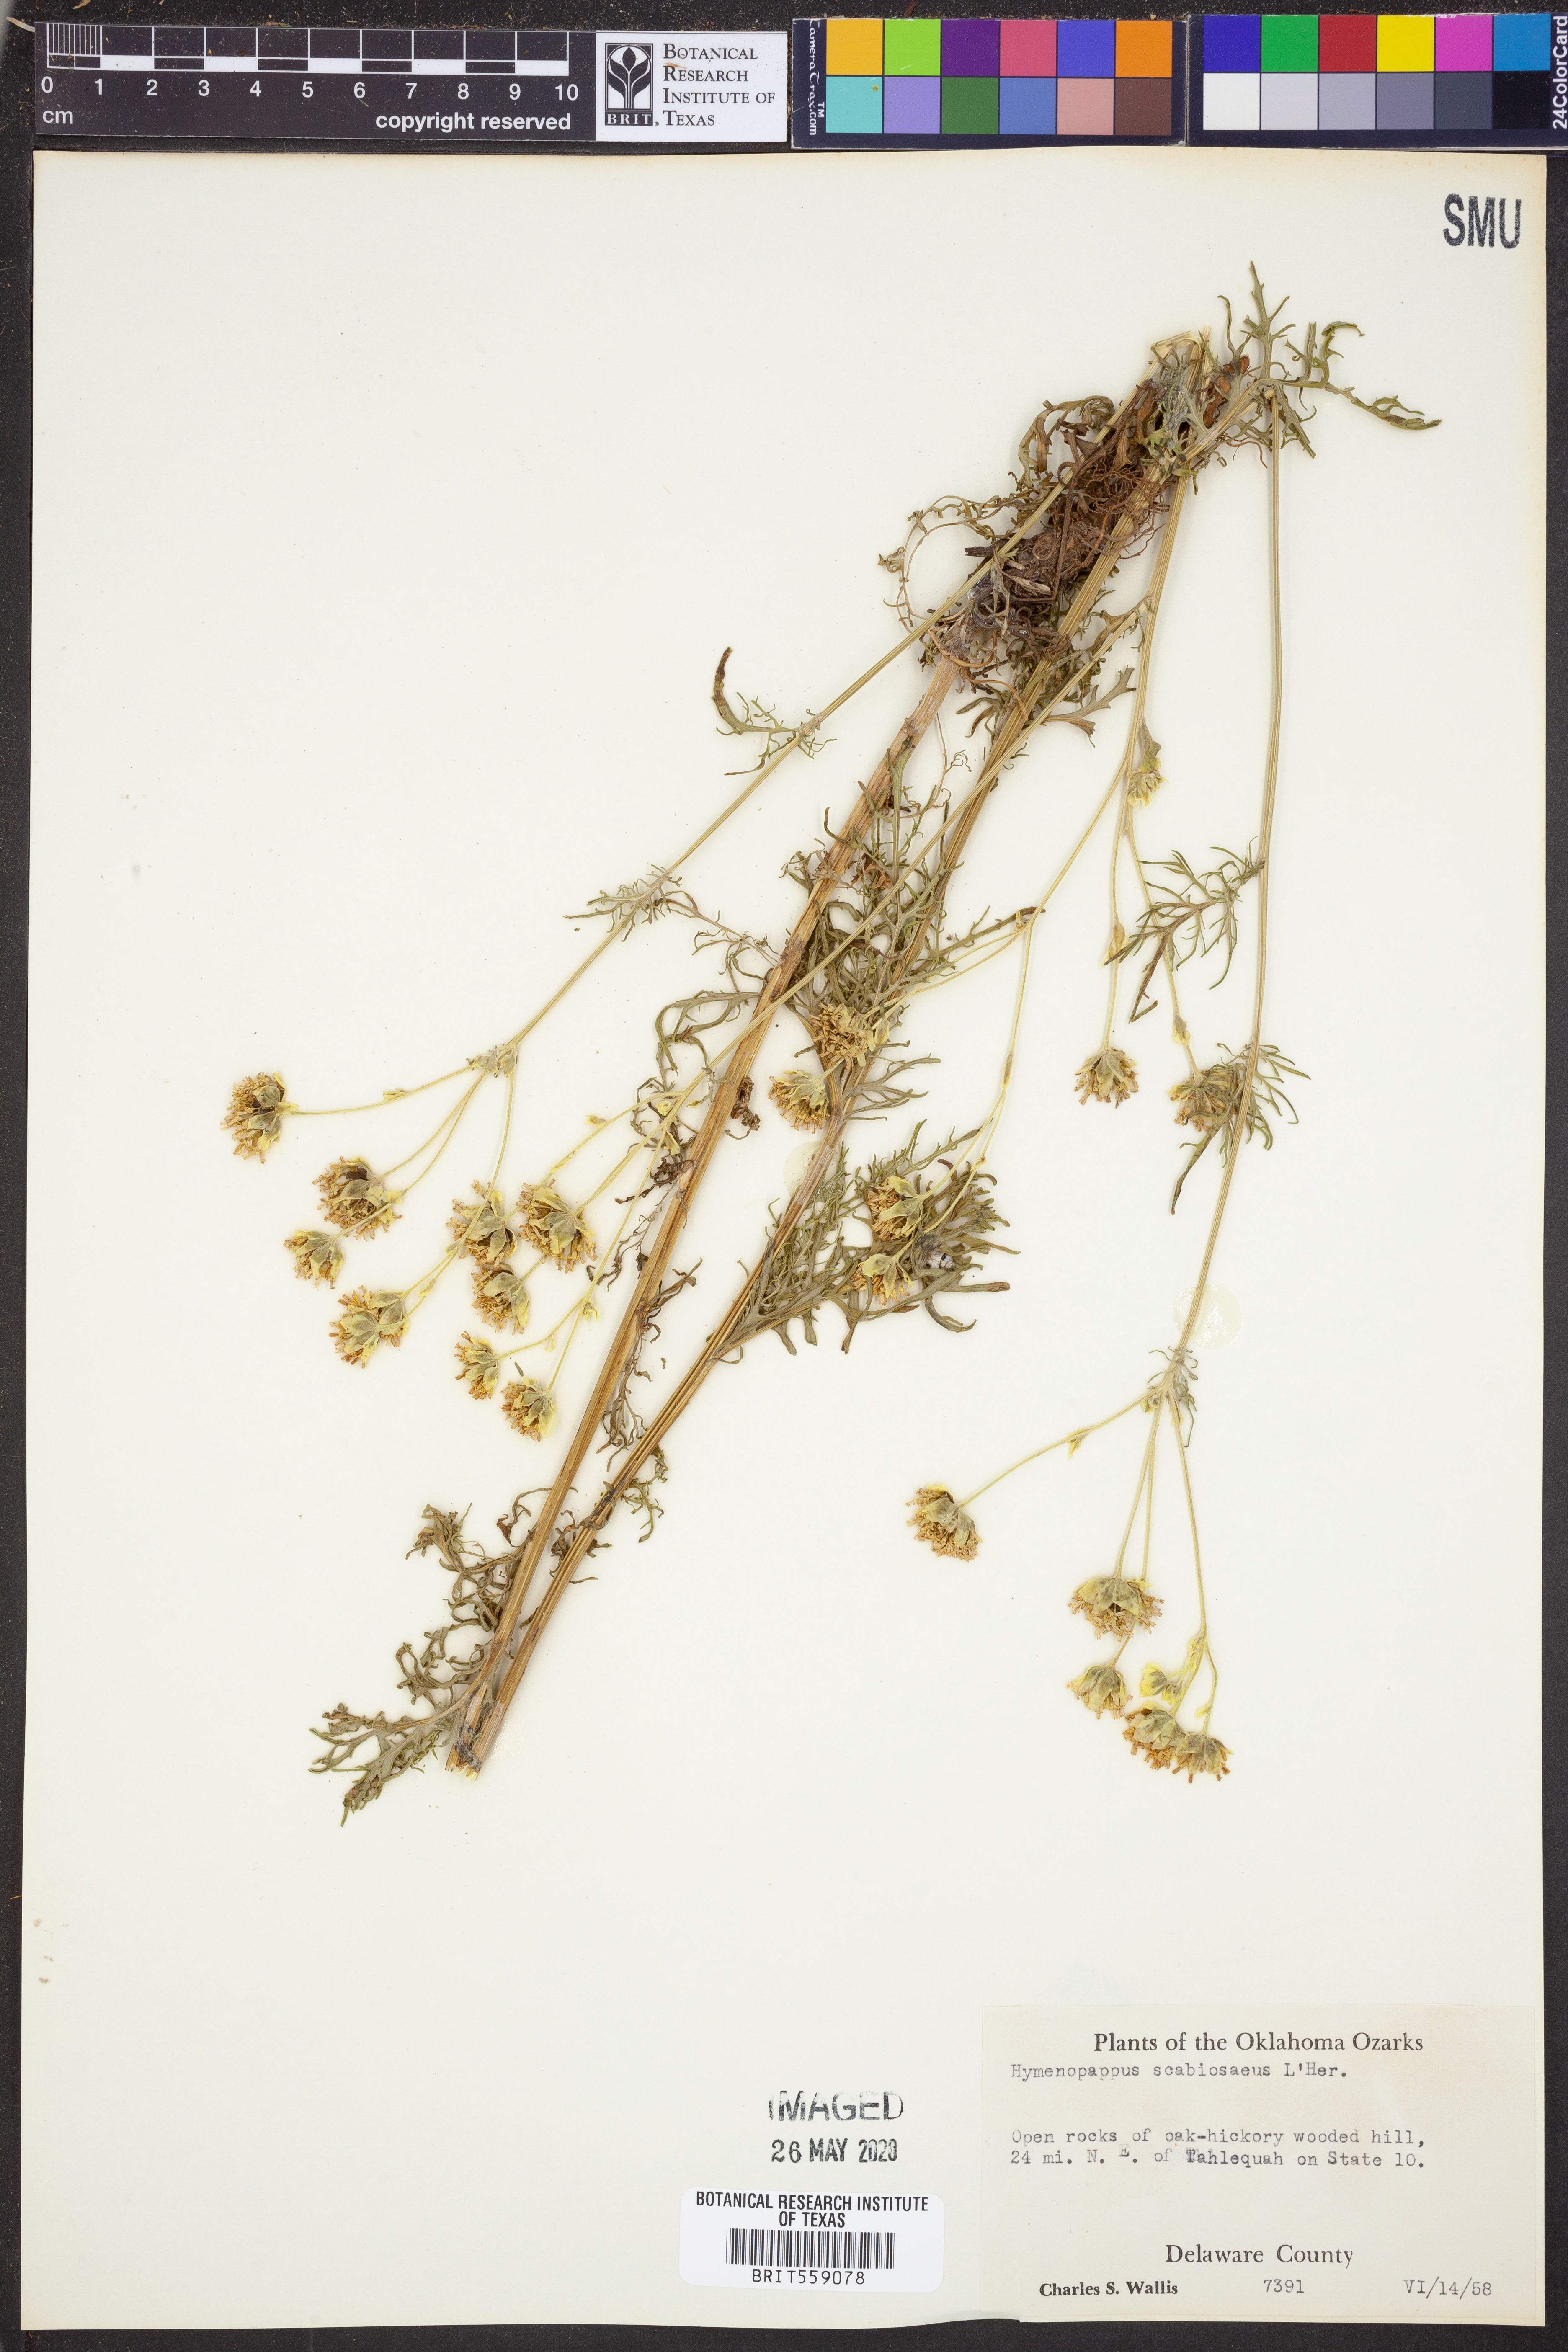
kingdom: Plantae
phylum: Tracheophyta
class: Magnoliopsida
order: Asterales
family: Asteraceae
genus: Hymenopappus
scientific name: Hymenopappus scabiosaeus
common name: Carolina woollywhite
